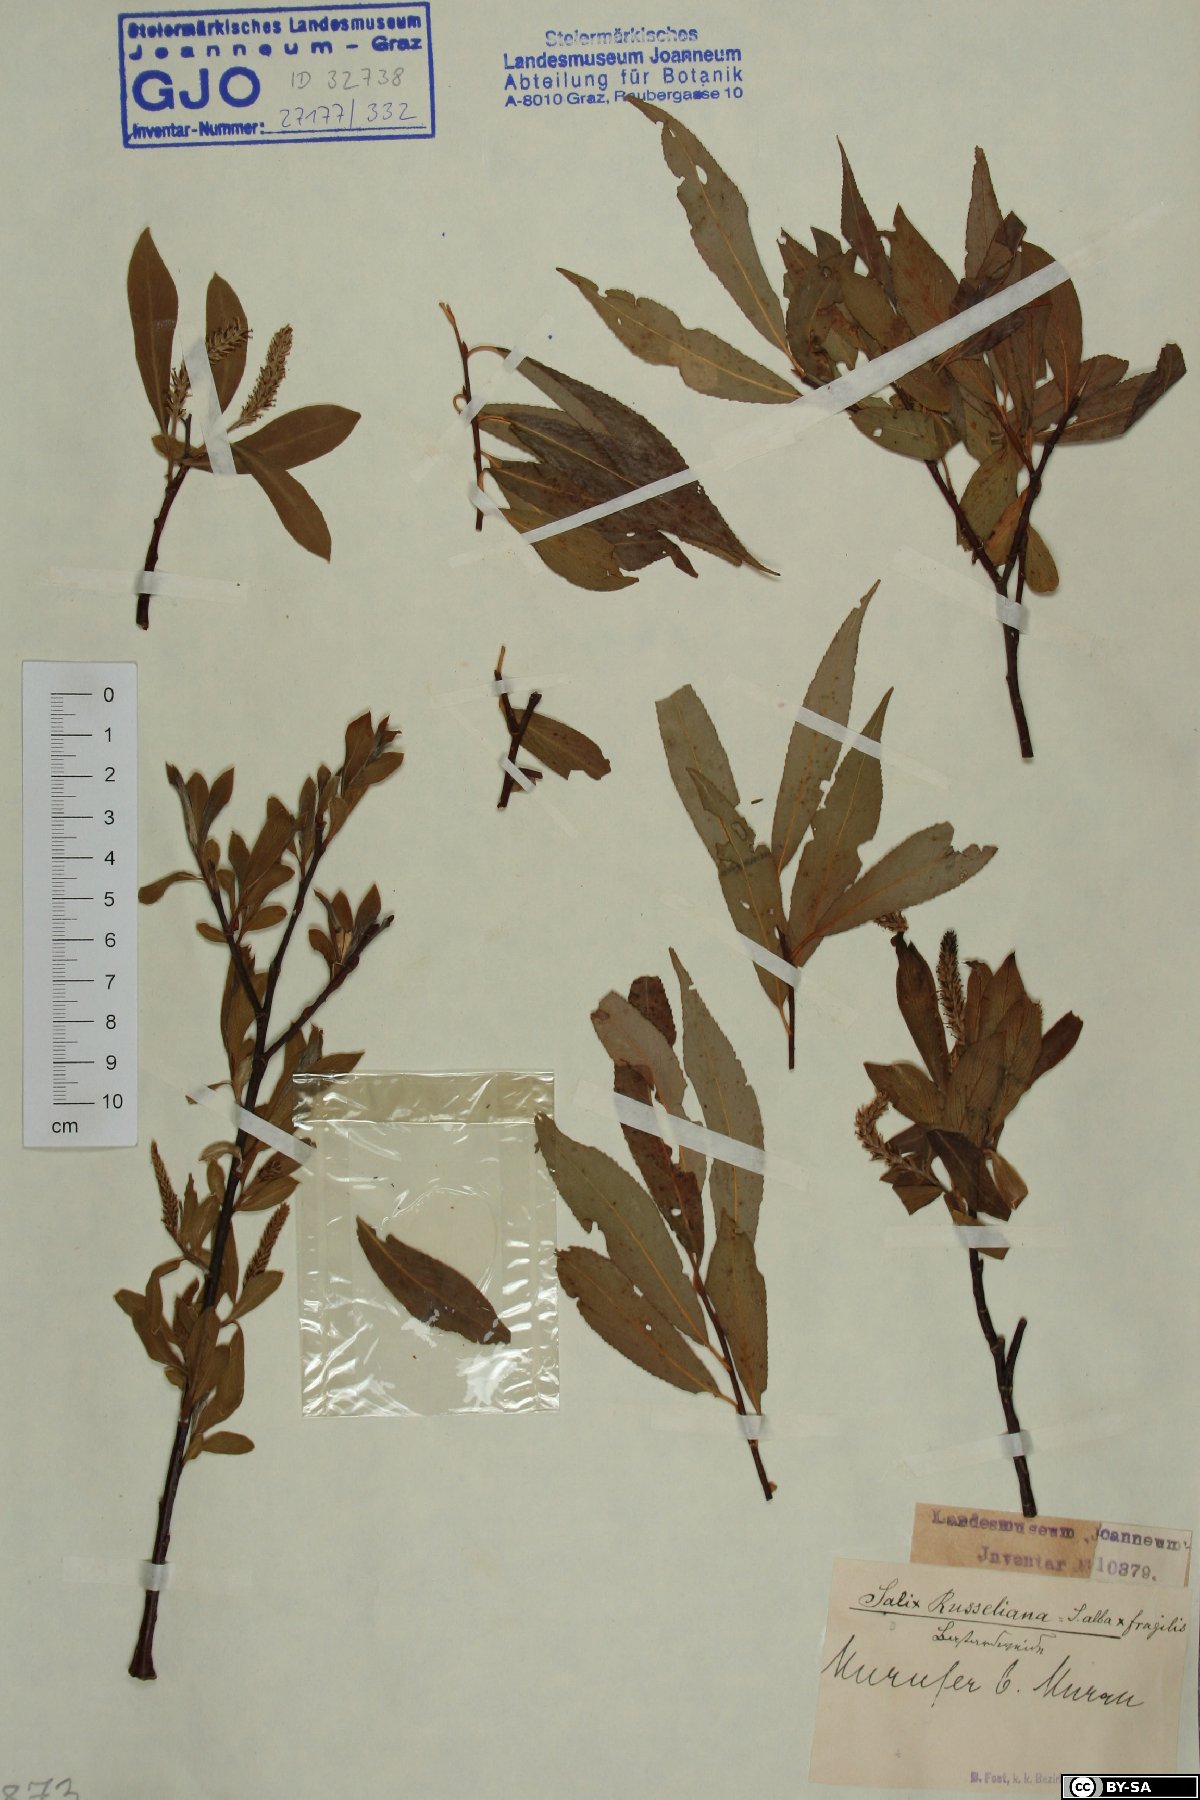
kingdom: Plantae
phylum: Tracheophyta
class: Magnoliopsida
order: Malpighiales
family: Salicaceae
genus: Salix
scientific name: Salix rubens
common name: Hybrid crack willow
